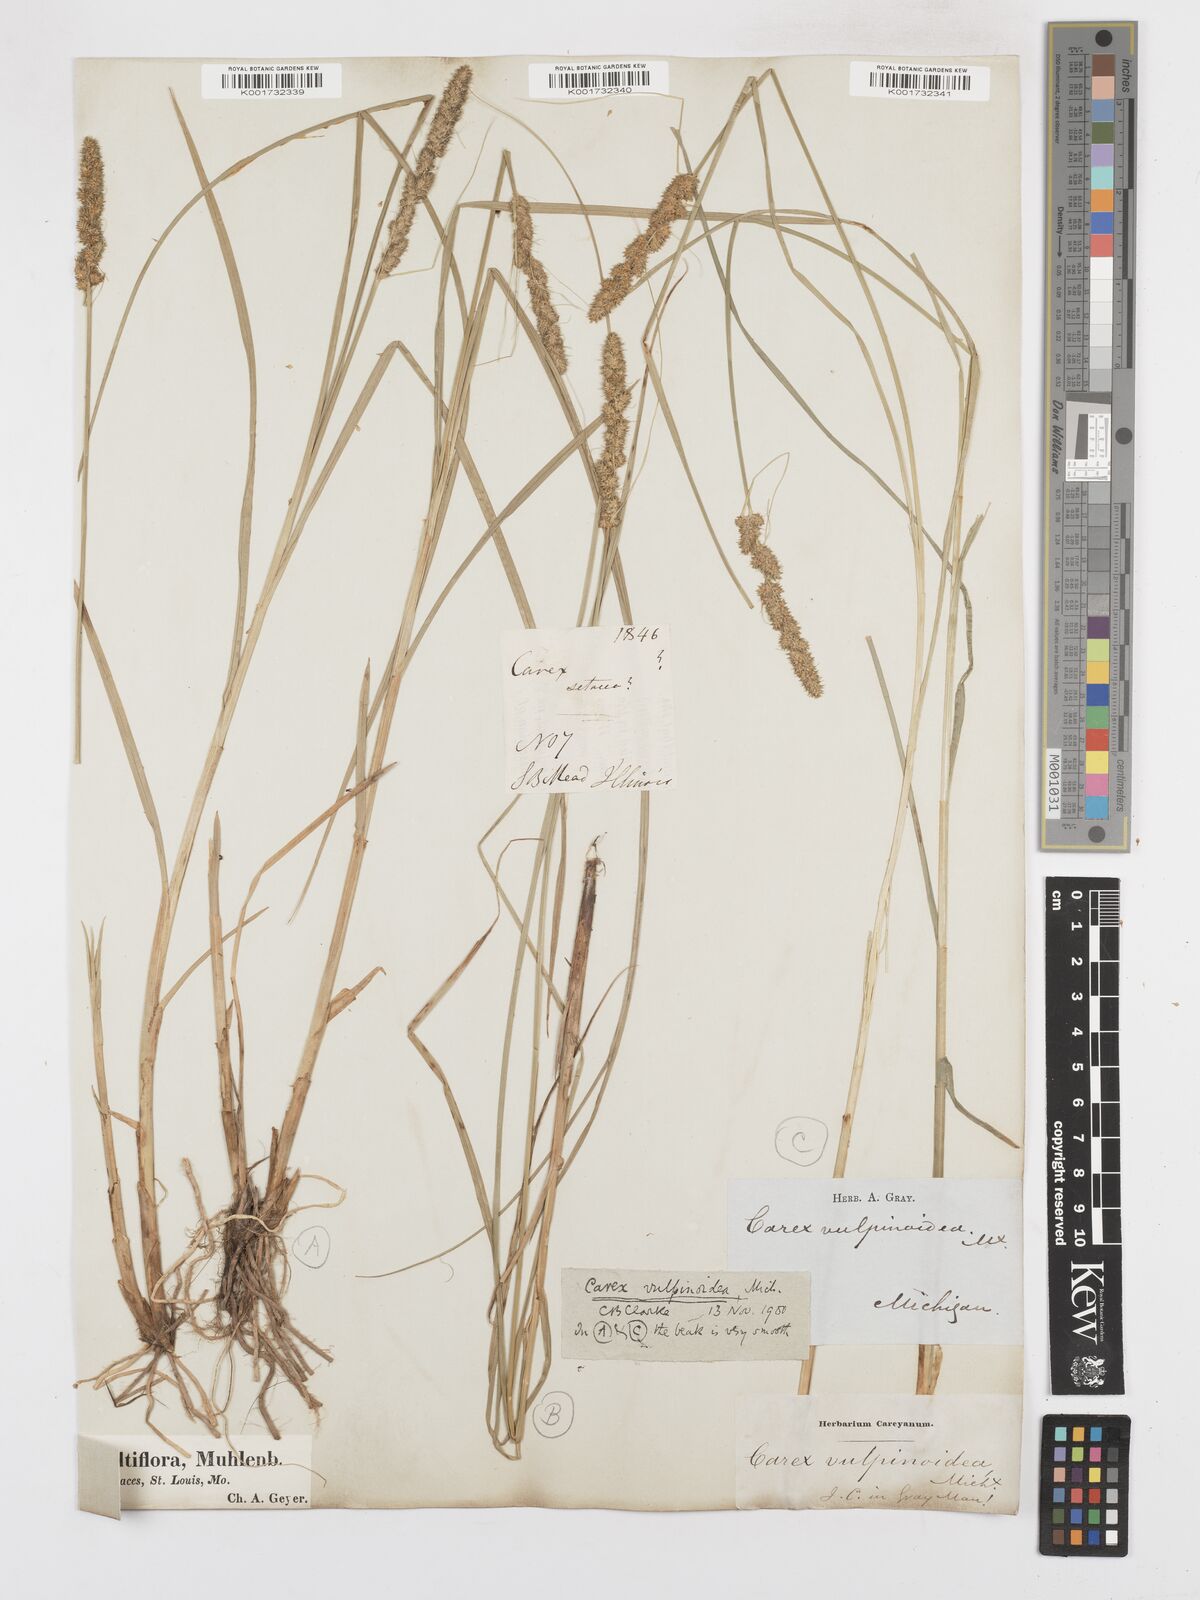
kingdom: Plantae
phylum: Tracheophyta
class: Liliopsida
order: Poales
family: Cyperaceae
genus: Carex
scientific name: Carex vulpinoidea
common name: American fox-sedge
